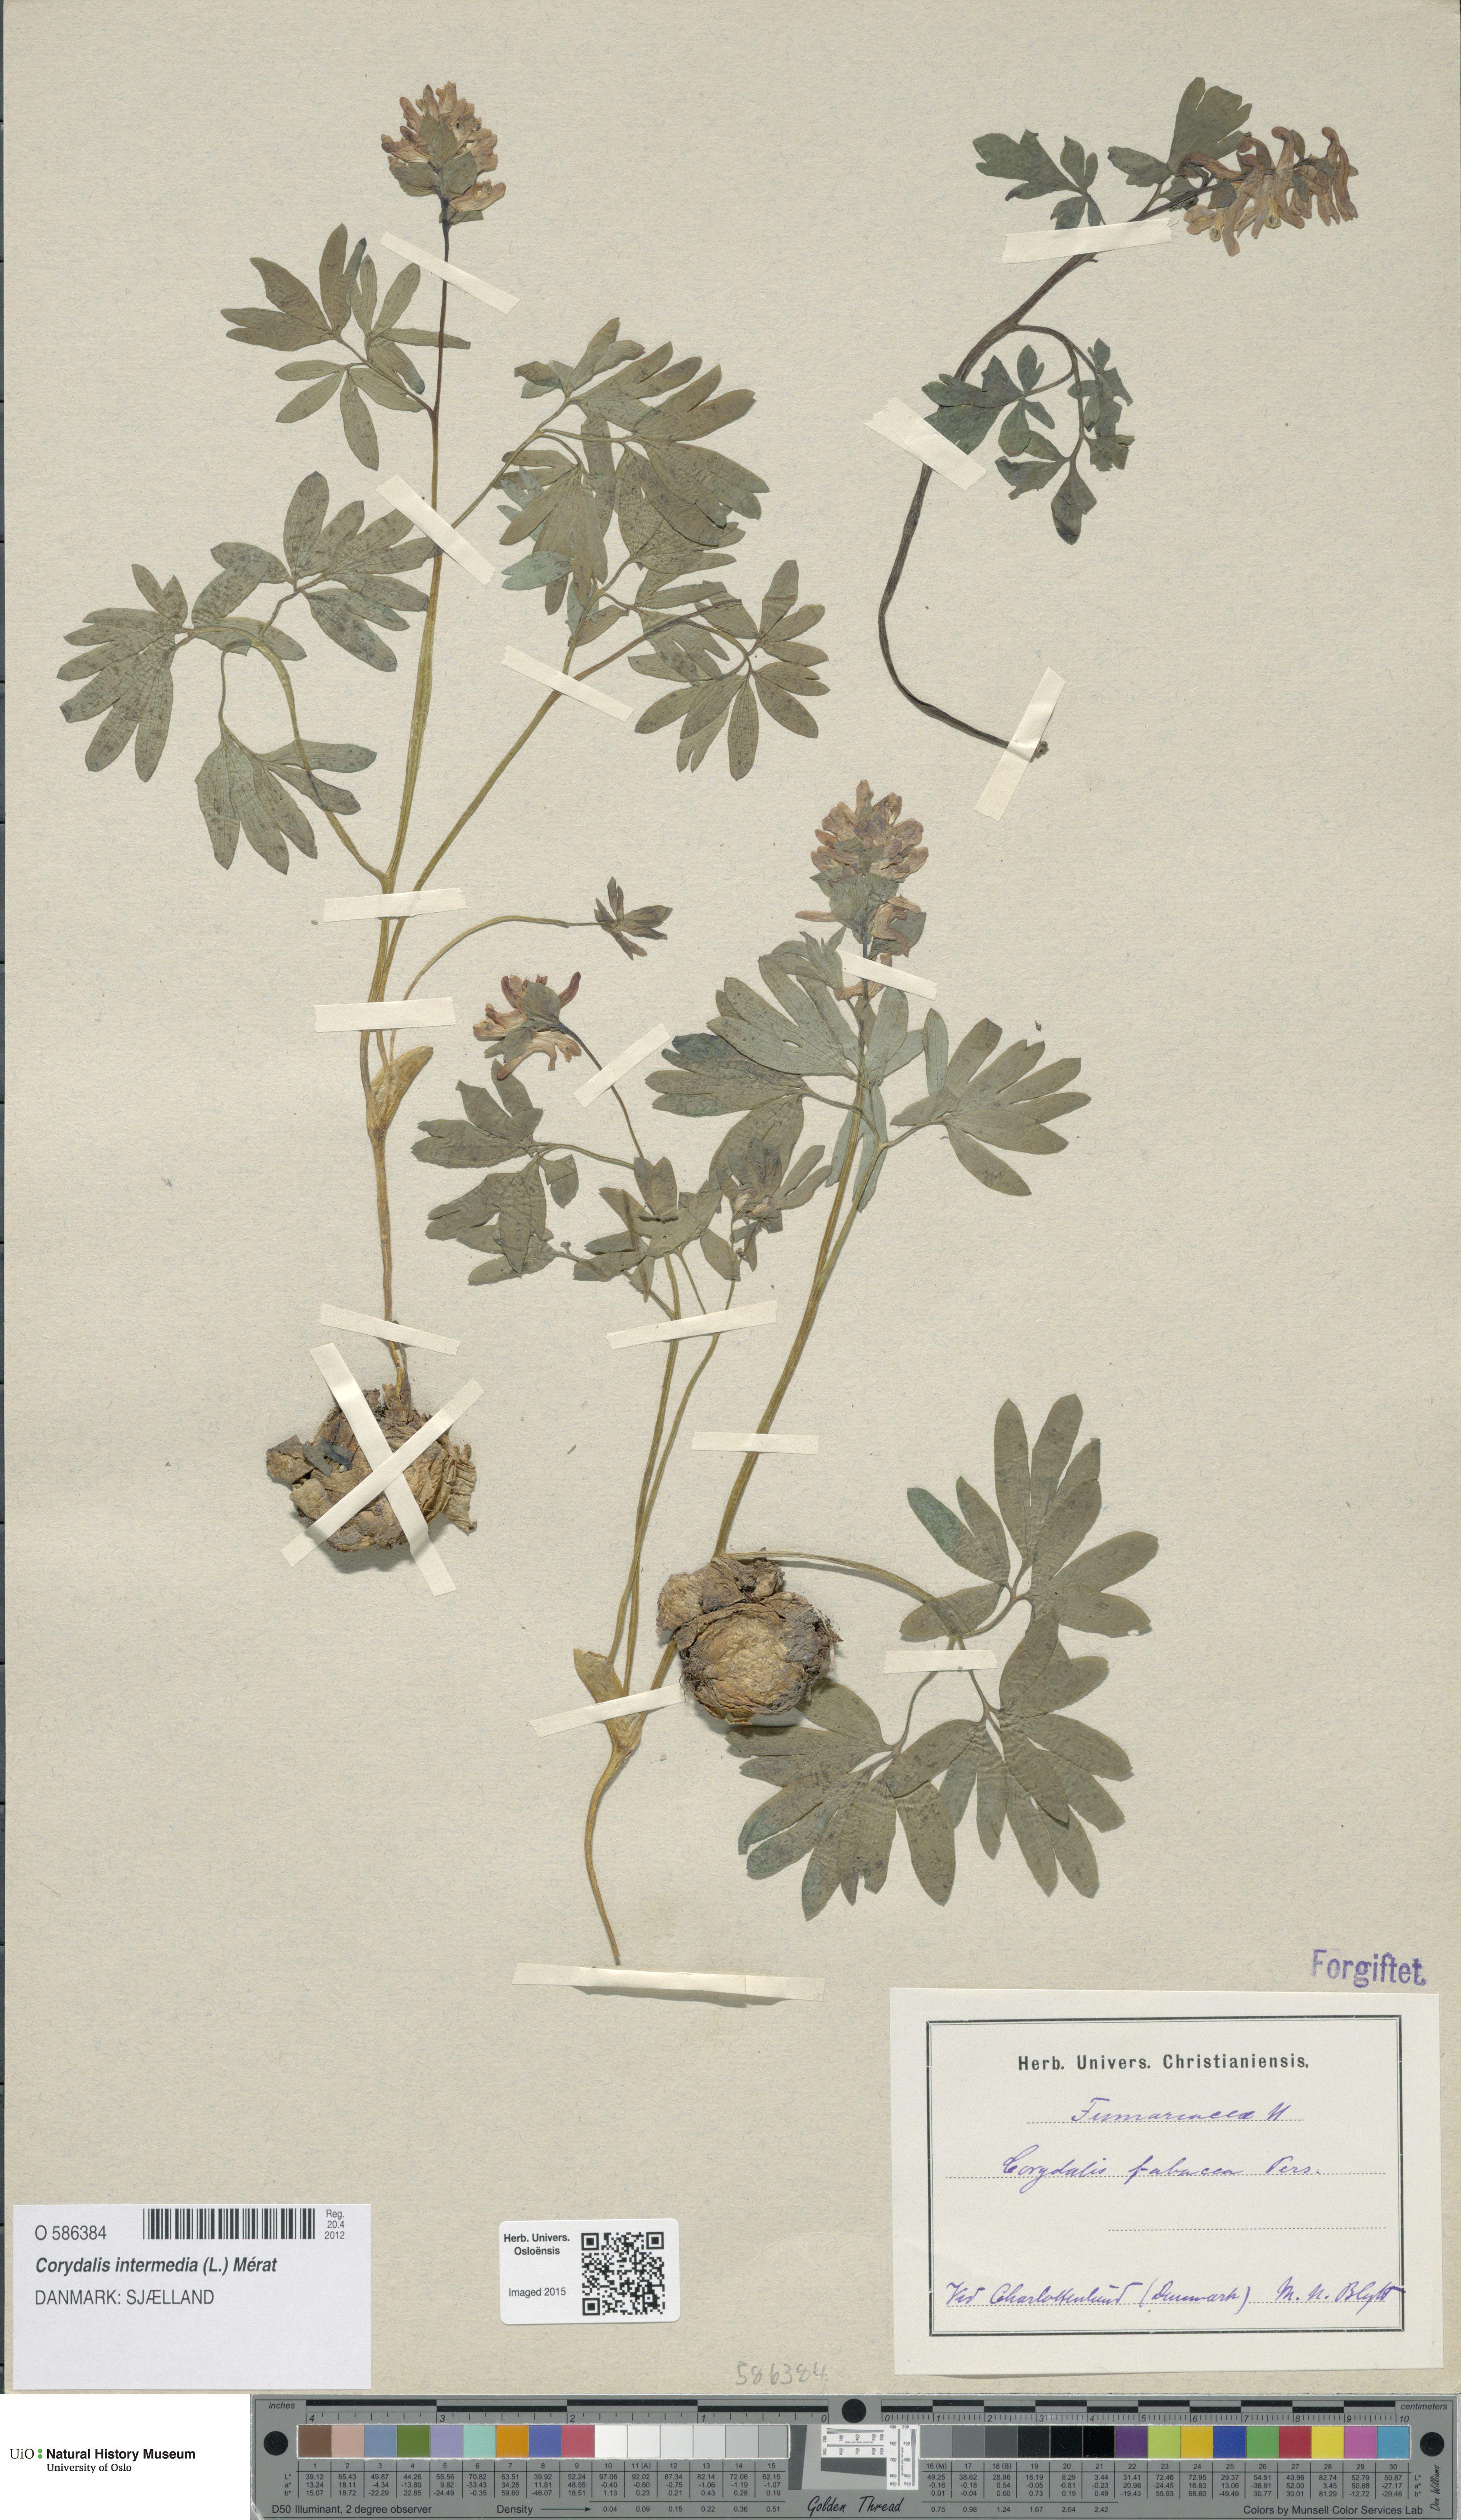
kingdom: Plantae
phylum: Tracheophyta
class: Magnoliopsida
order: Ranunculales
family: Papaveraceae
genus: Corydalis
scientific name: Corydalis intermedia
